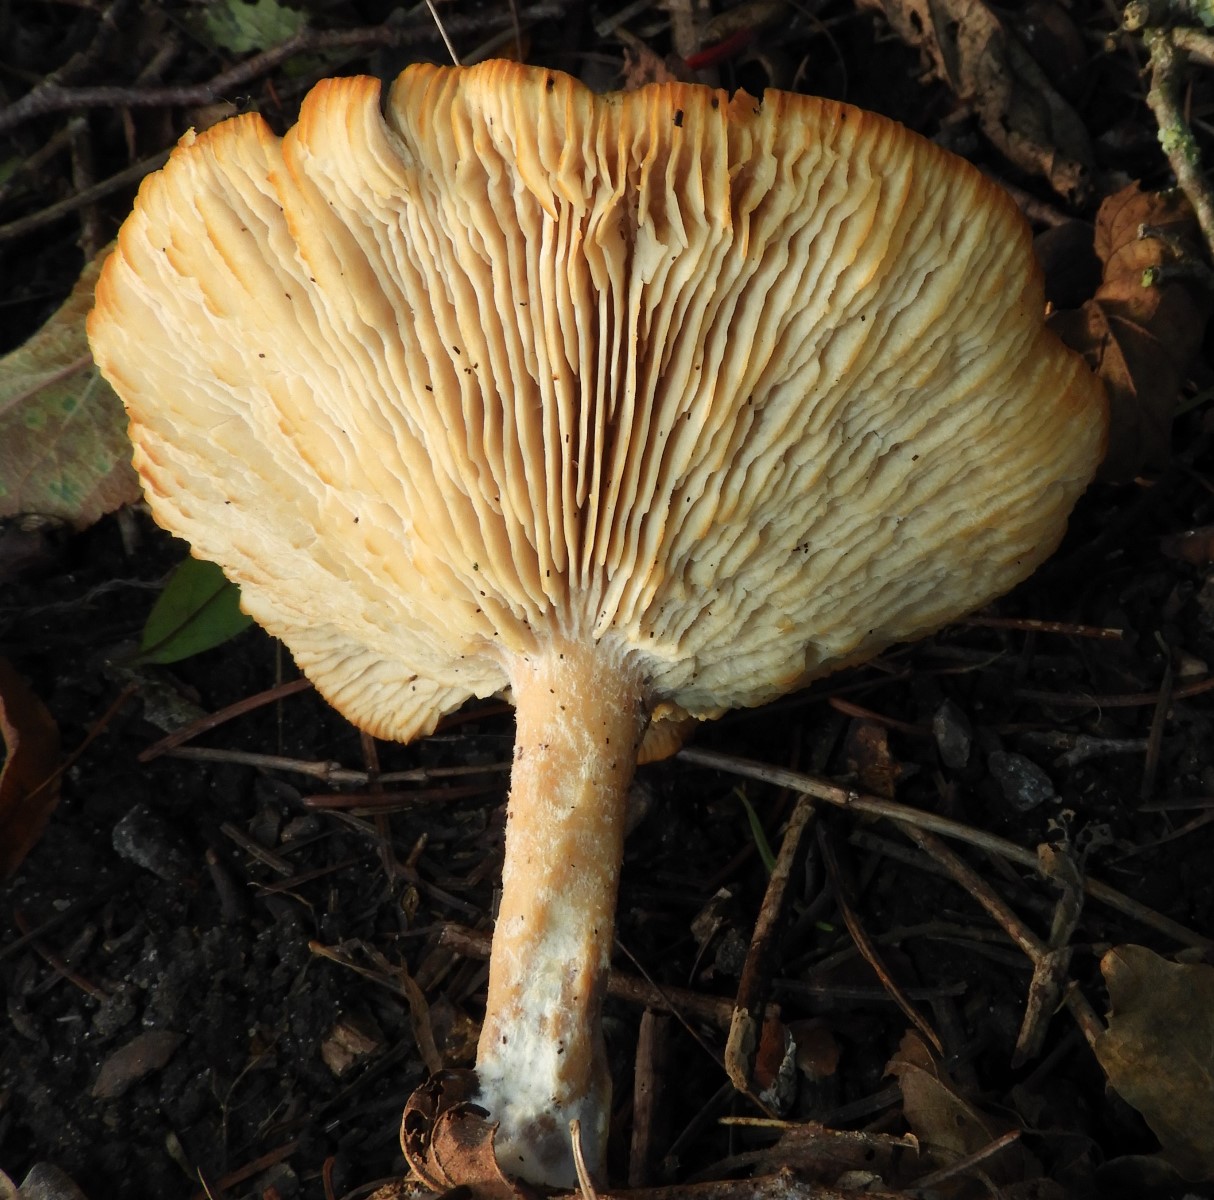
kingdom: Fungi
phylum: Basidiomycota
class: Agaricomycetes
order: Agaricales
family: Tricholomataceae
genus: Infundibulicybe
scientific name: Infundibulicybe geotropa
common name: stor tragthat
